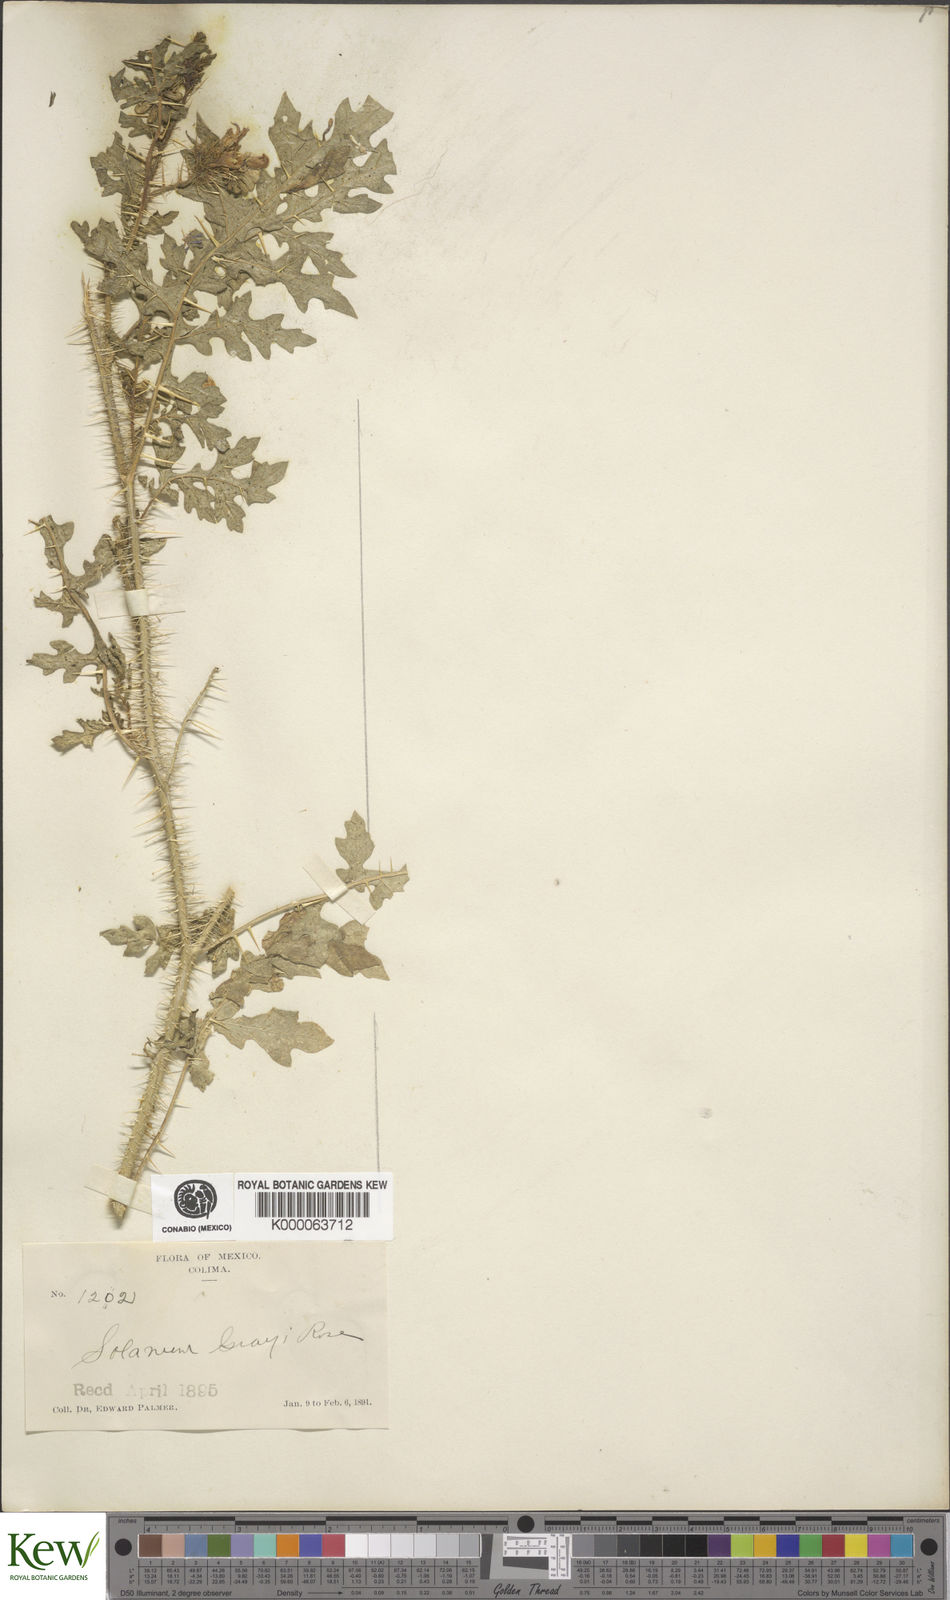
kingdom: Plantae
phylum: Tracheophyta
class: Magnoliopsida
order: Solanales
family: Solanaceae
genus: Solanum
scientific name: Solanum grayi
